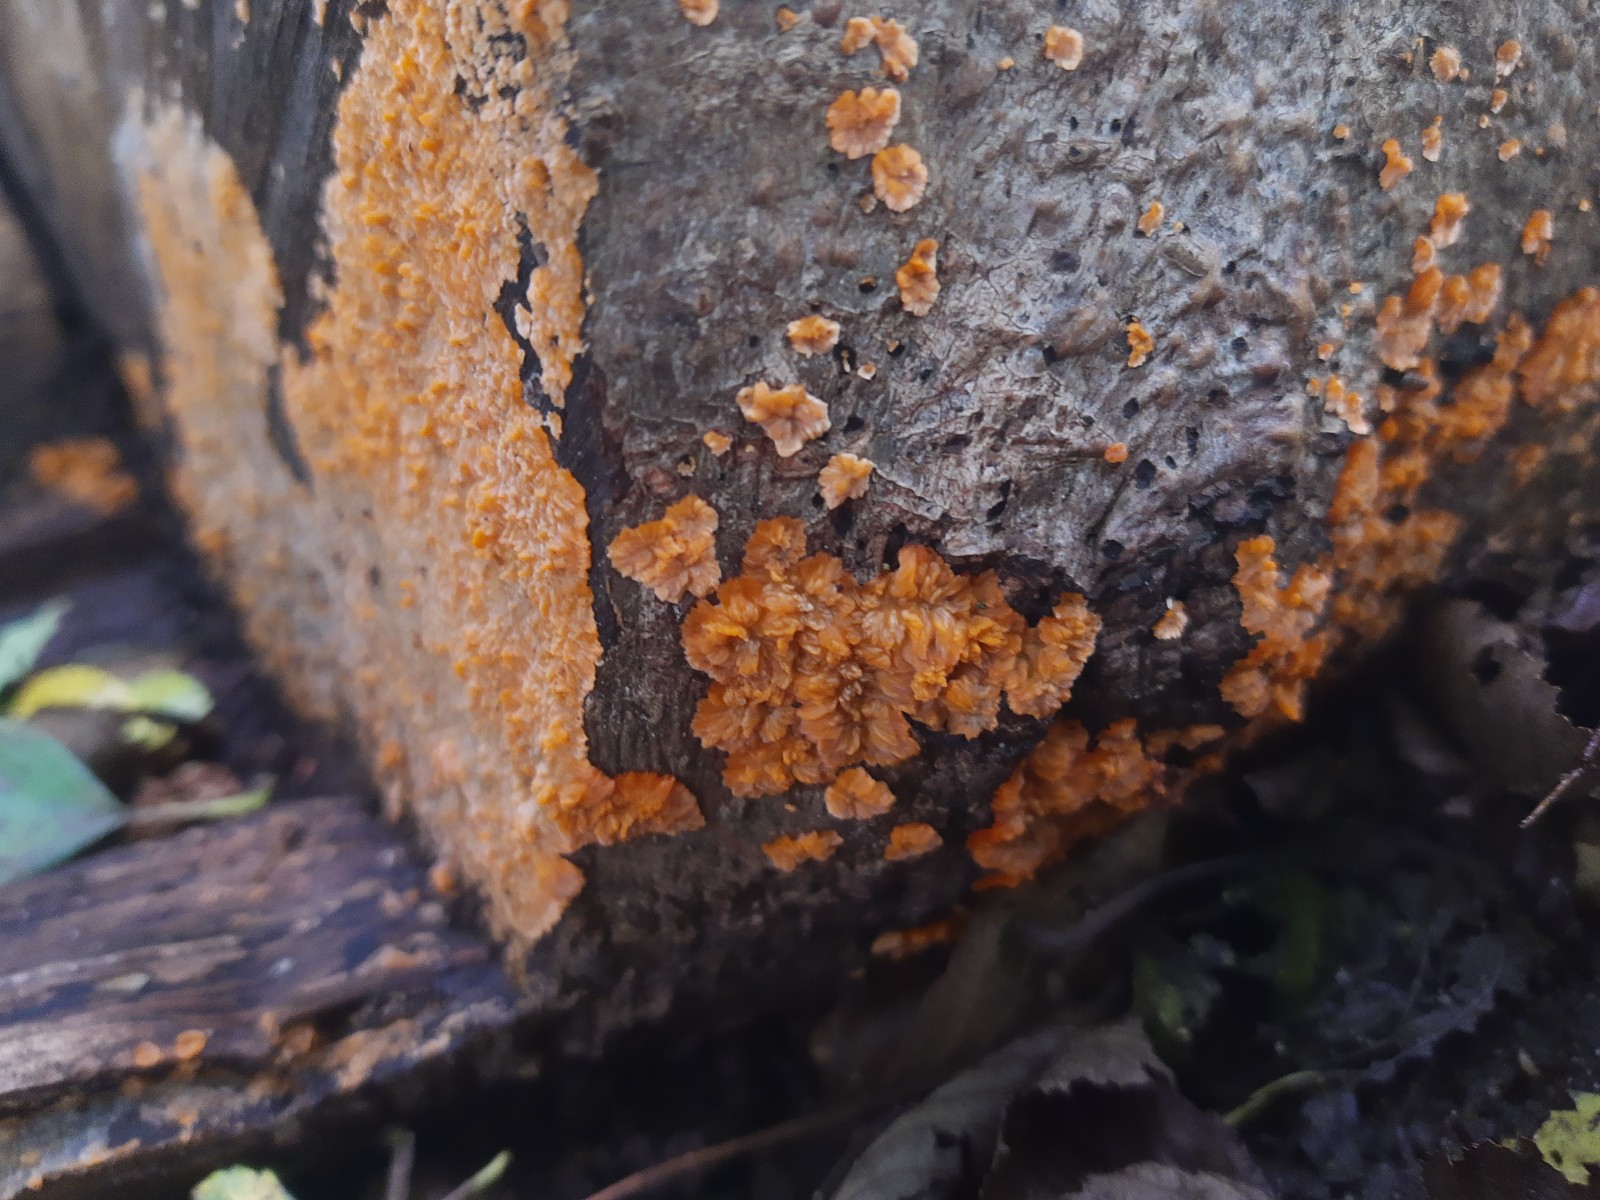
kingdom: Fungi
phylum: Basidiomycota
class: Agaricomycetes
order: Polyporales
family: Meruliaceae
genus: Phlebia
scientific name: Phlebia radiata
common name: stråle-åresvamp
